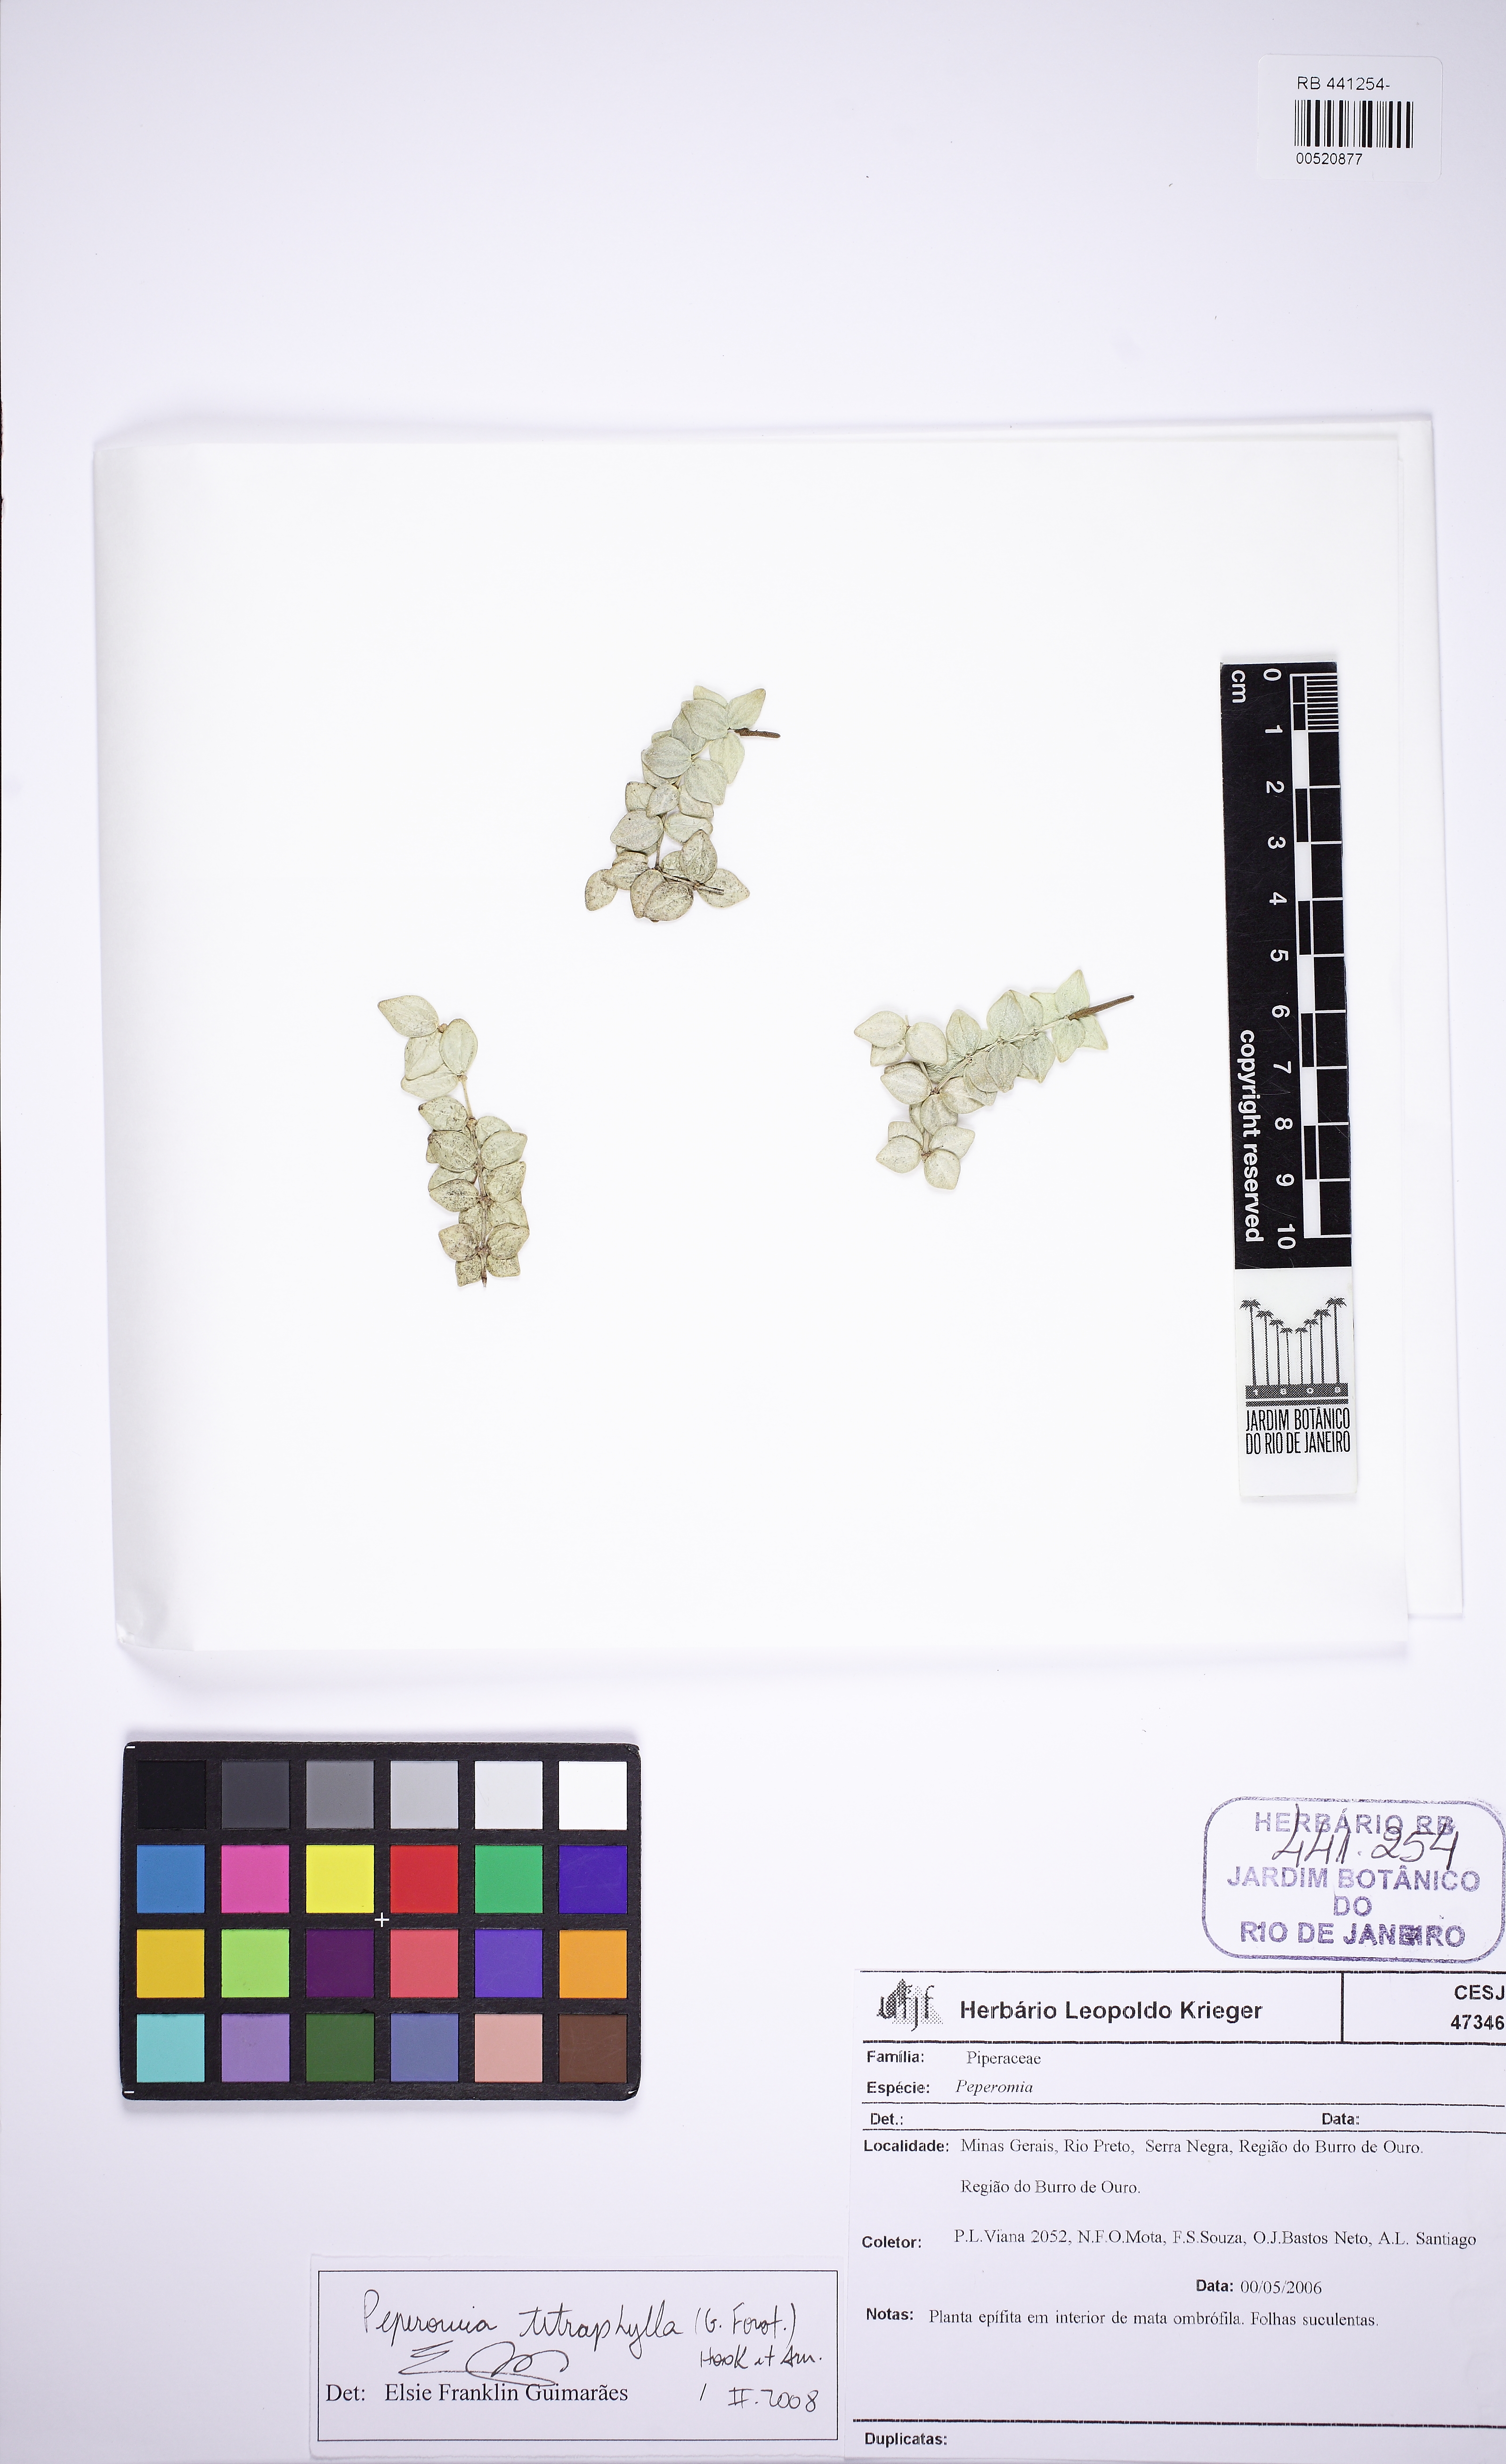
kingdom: Plantae
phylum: Tracheophyta
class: Magnoliopsida
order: Piperales
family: Piperaceae
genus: Peperomia
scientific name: Peperomia tetraphylla
